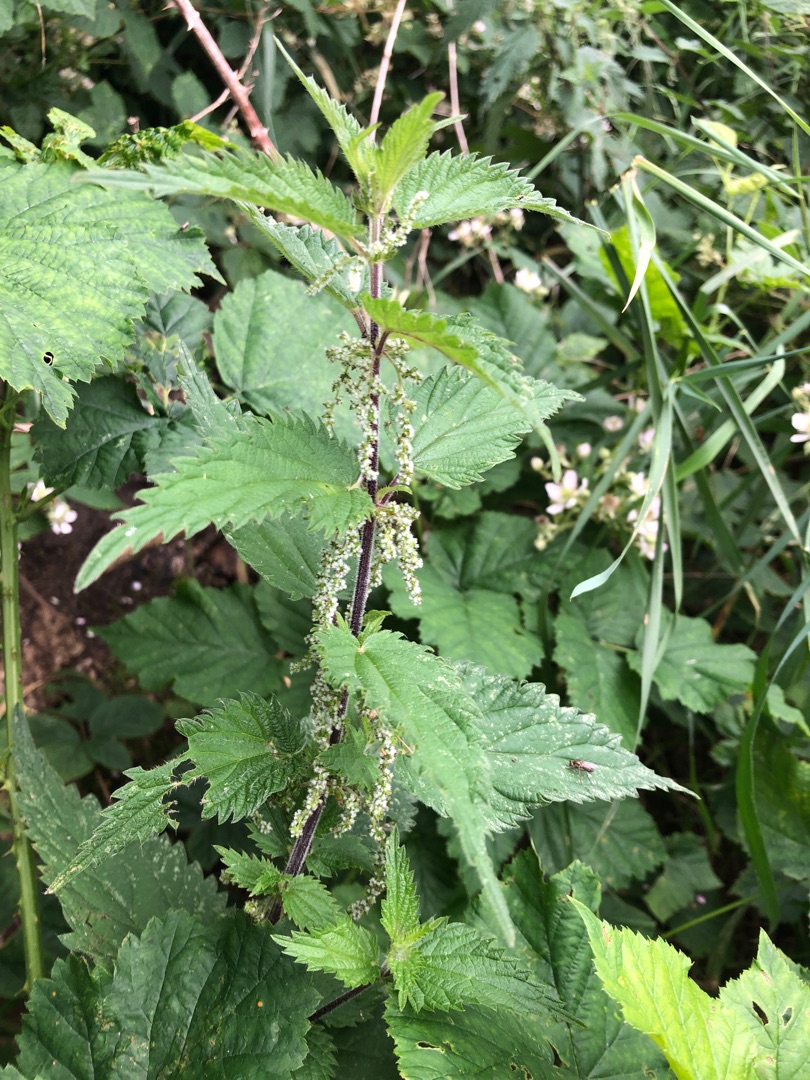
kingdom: Plantae
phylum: Tracheophyta
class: Magnoliopsida
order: Rosales
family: Urticaceae
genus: Urtica
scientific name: Urtica dioica
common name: Stor nælde
